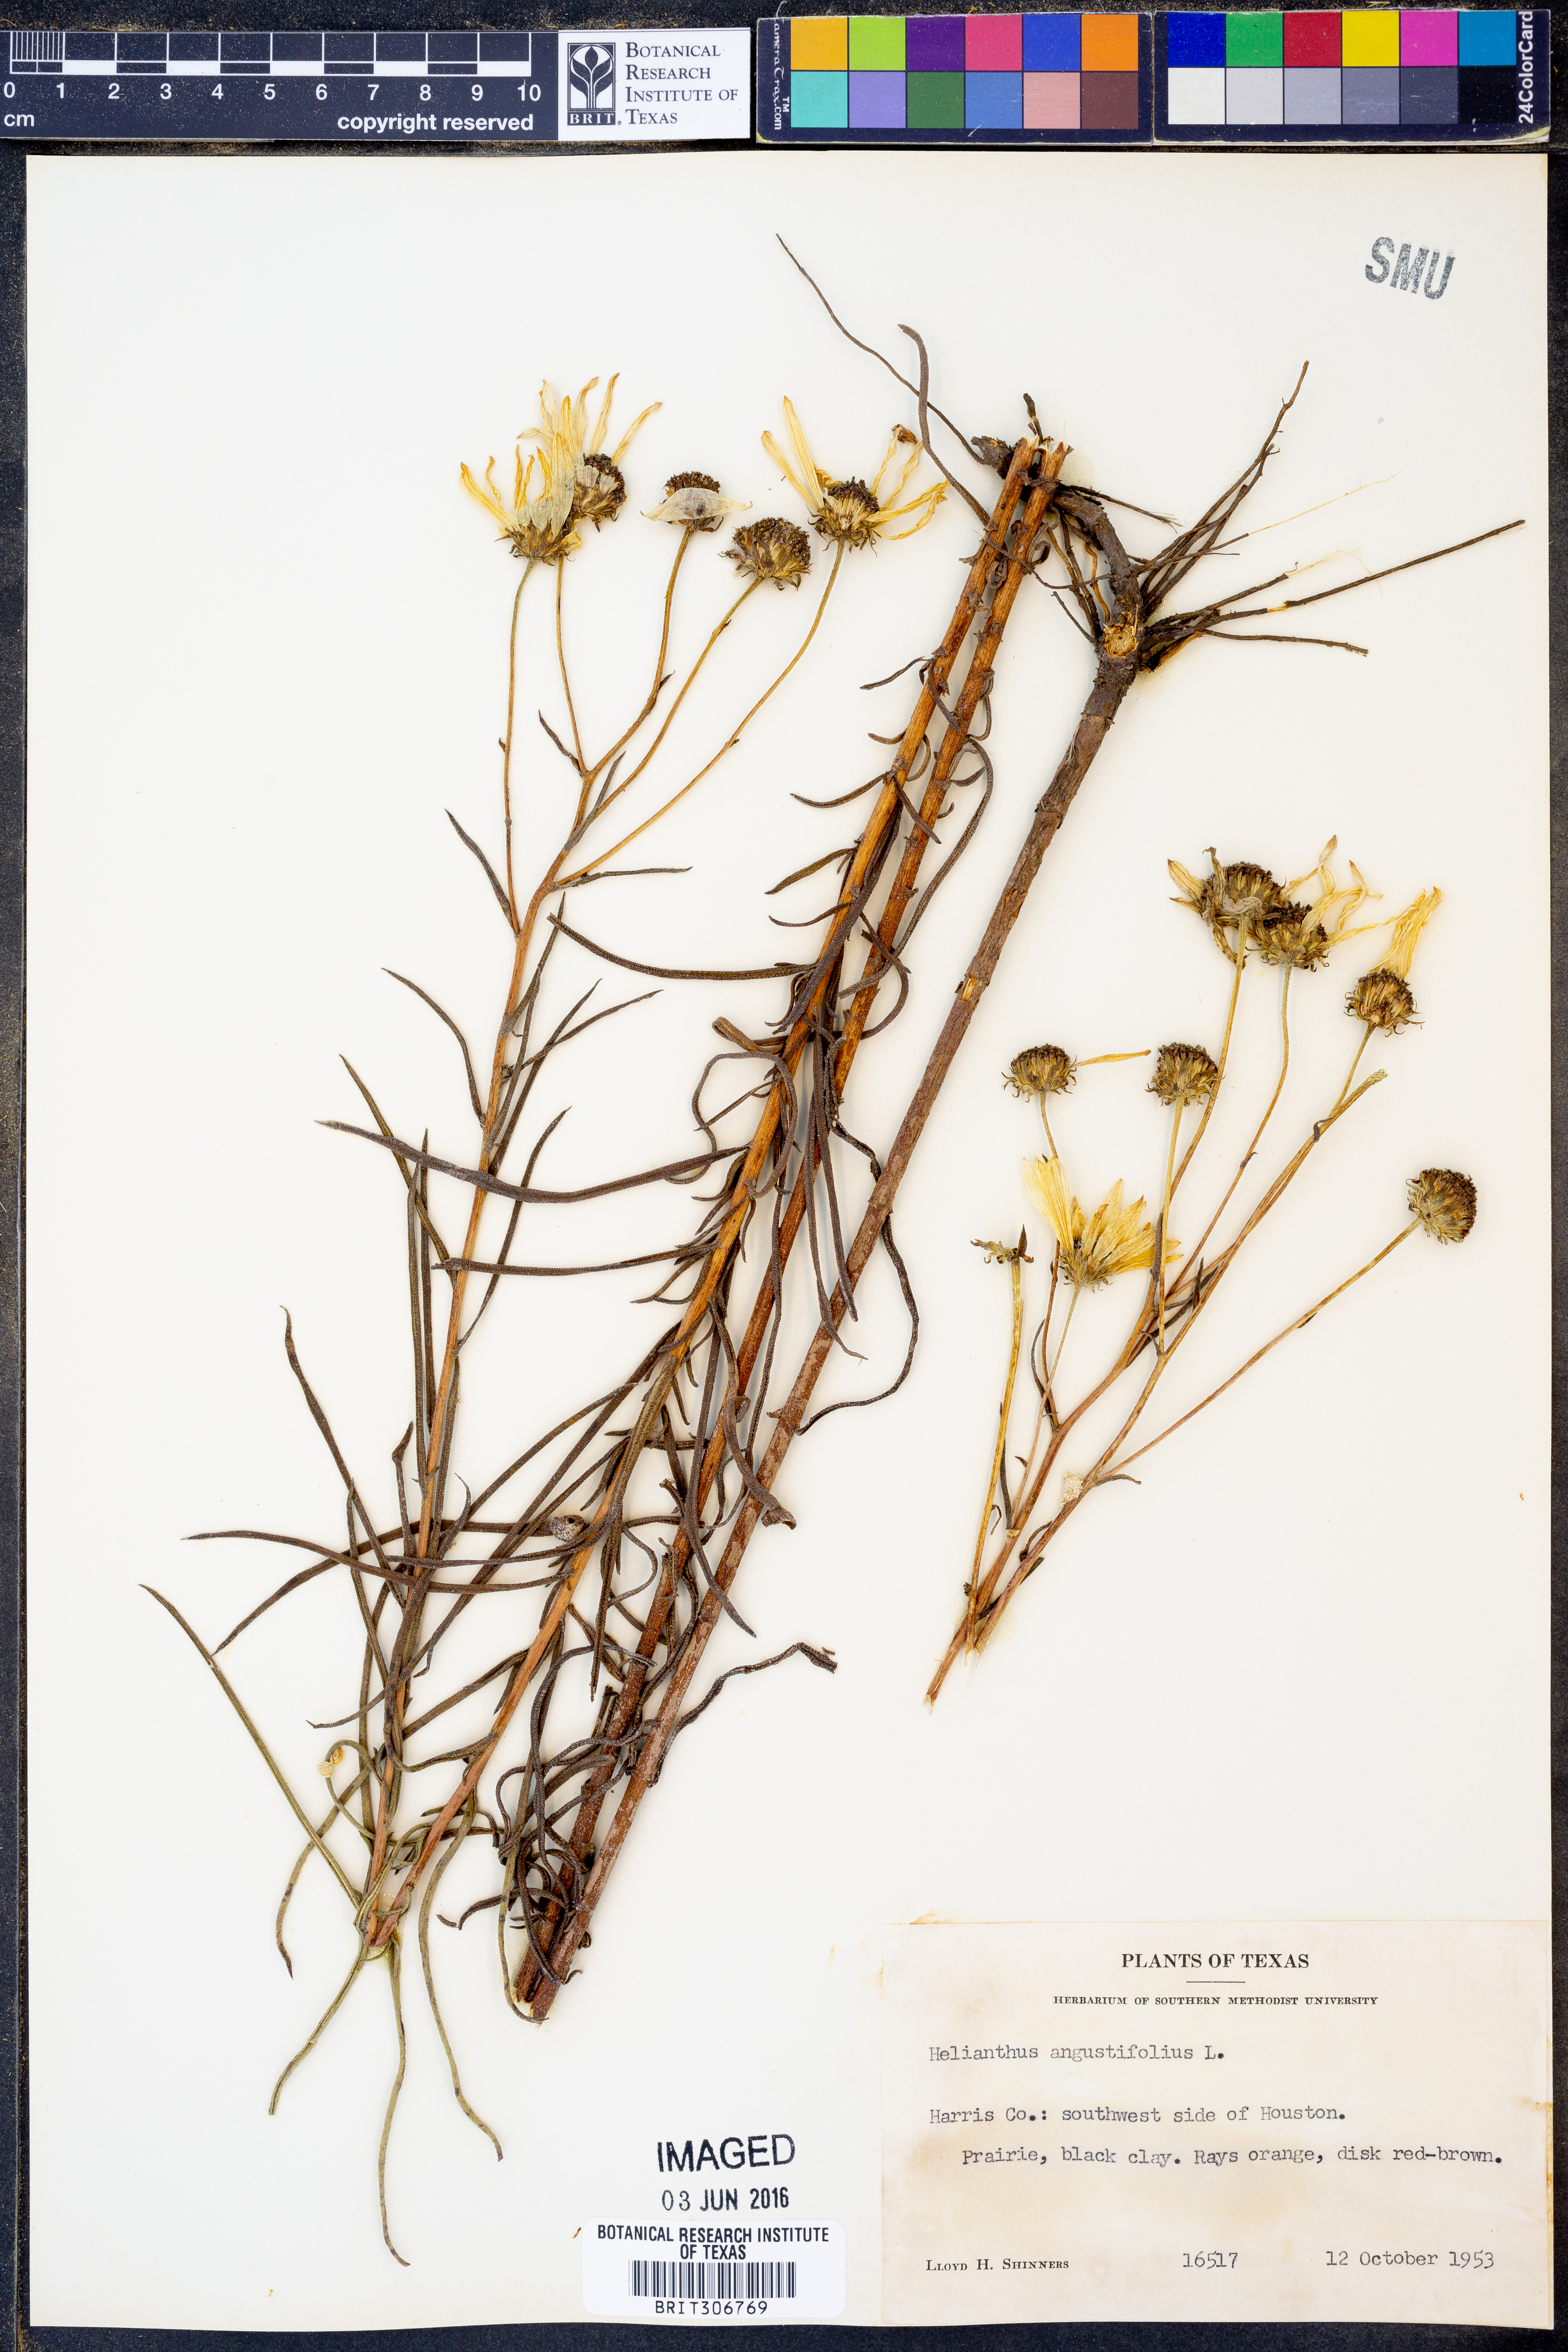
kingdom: Plantae
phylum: Tracheophyta
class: Magnoliopsida
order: Asterales
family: Asteraceae
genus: Helianthus
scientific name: Helianthus angustifolius
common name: Swamp sunflower
